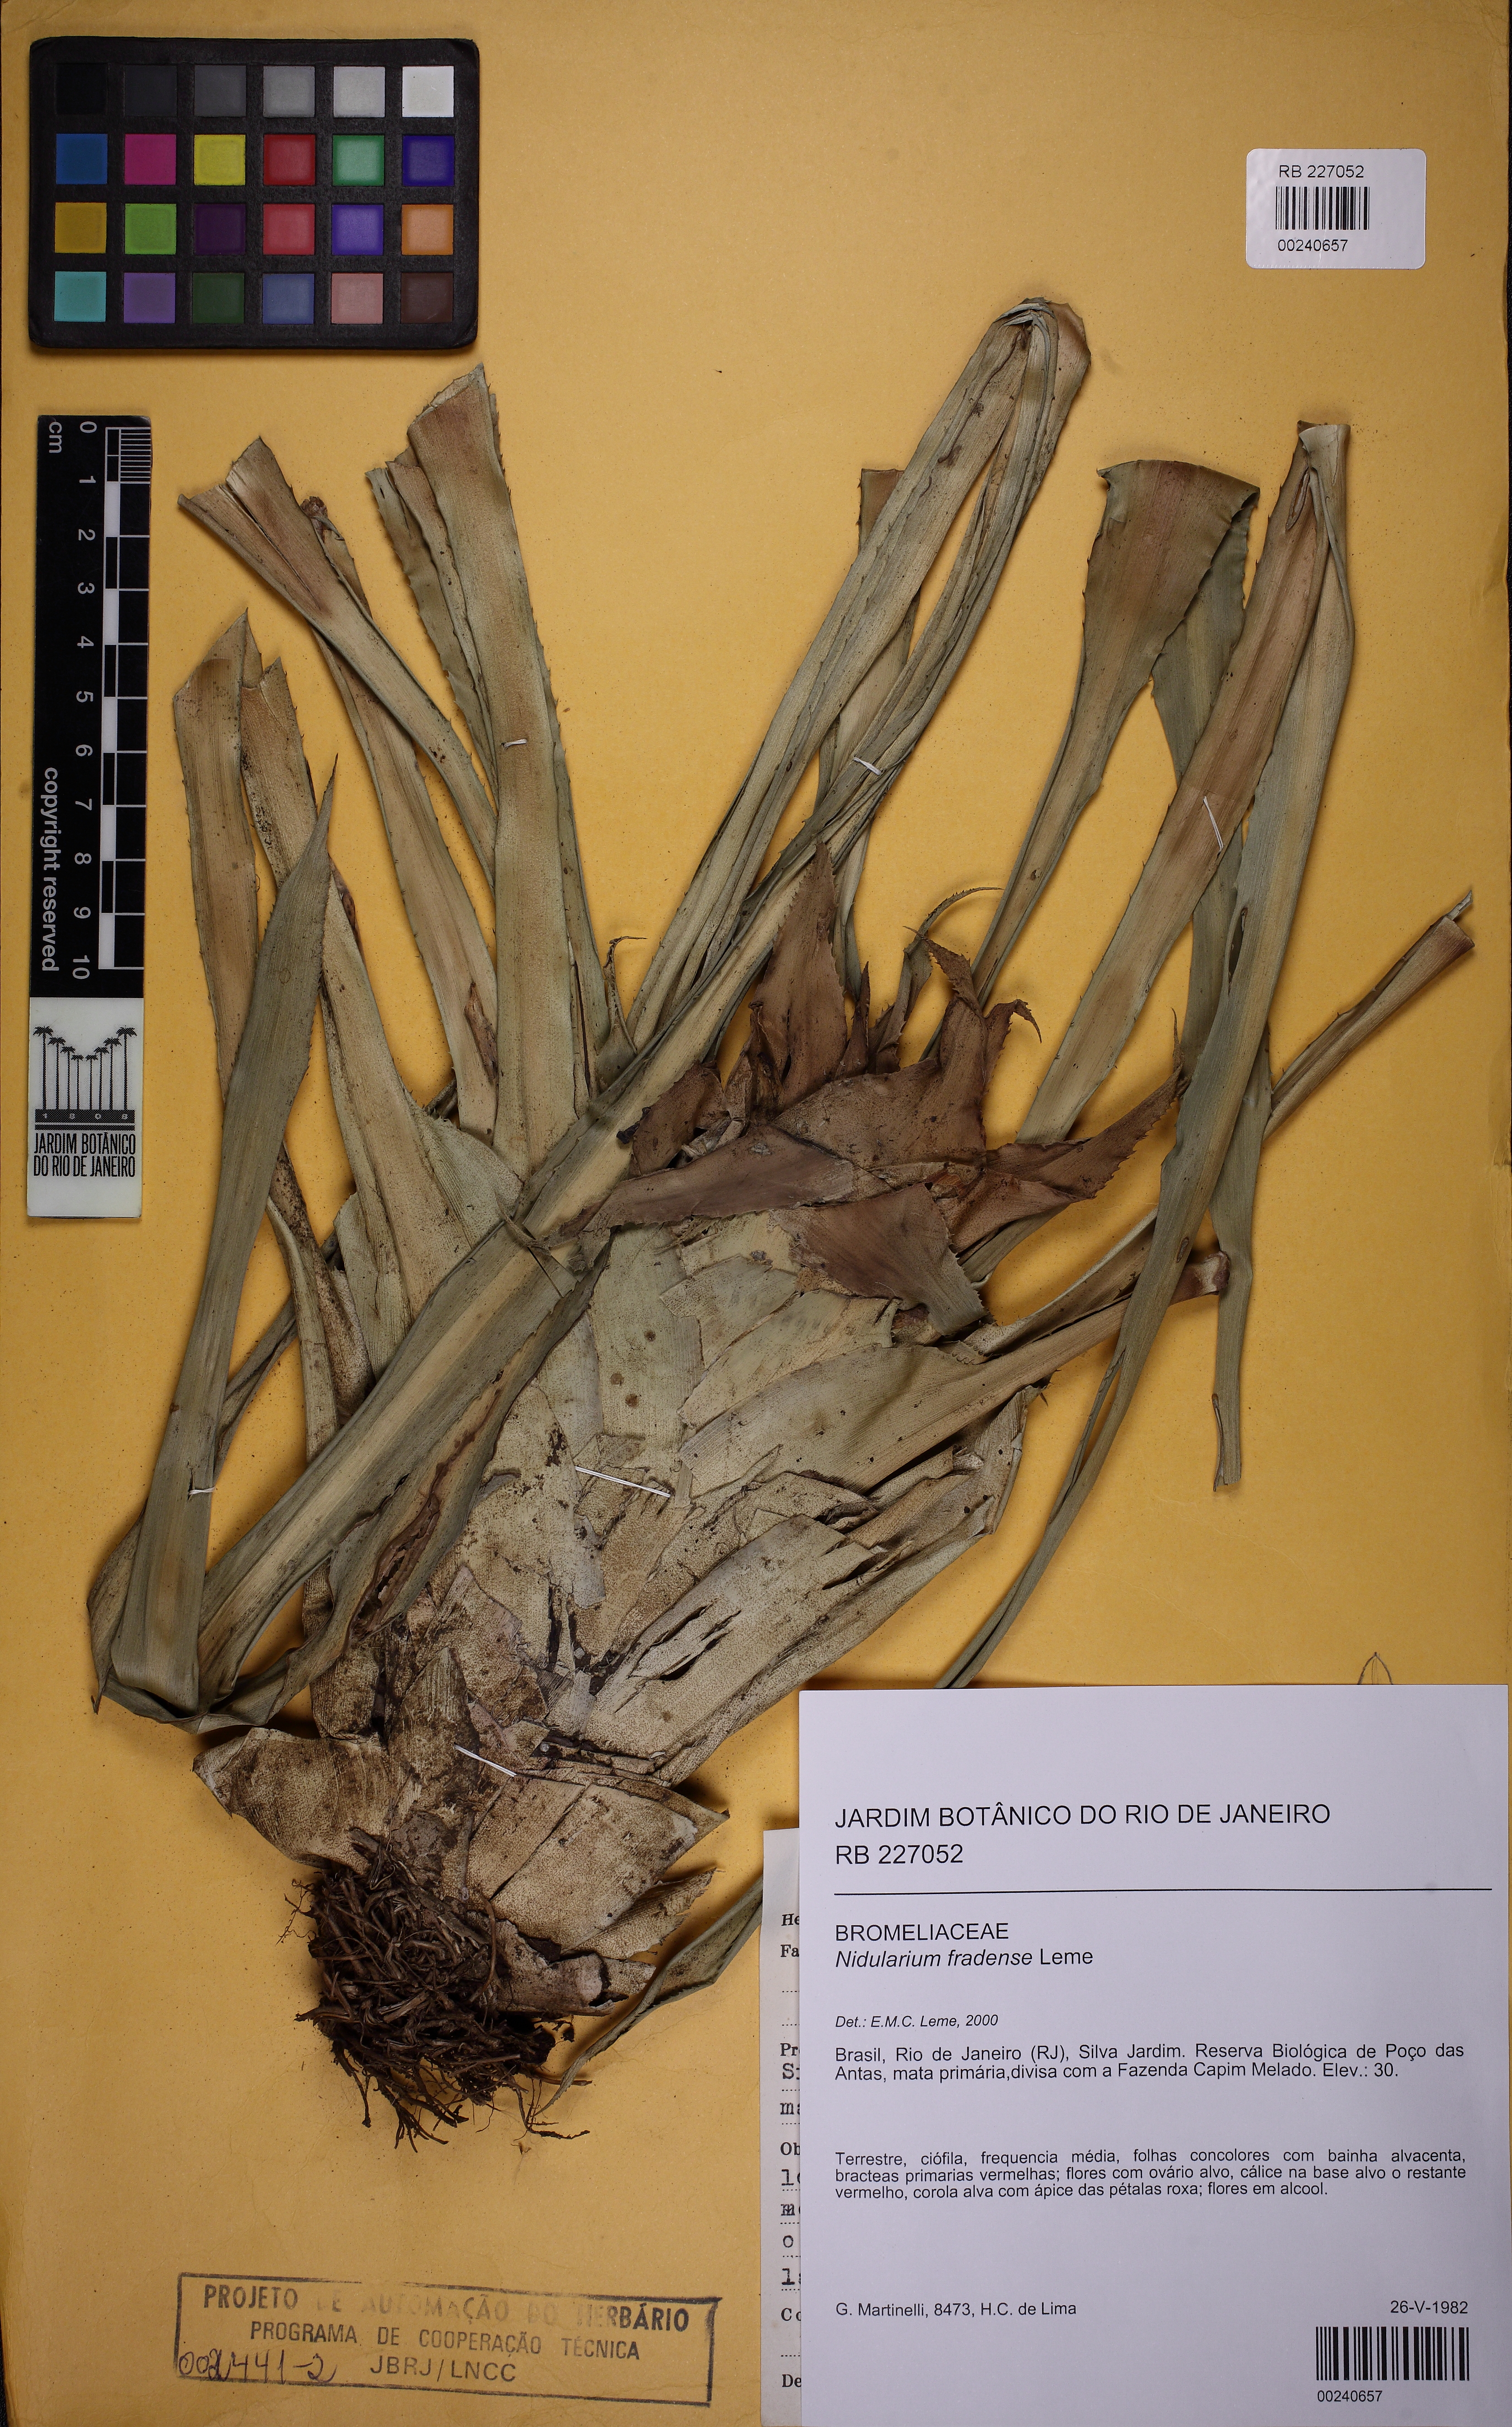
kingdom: Plantae
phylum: Tracheophyta
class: Liliopsida
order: Poales
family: Bromeliaceae
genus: Nidularium
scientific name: Nidularium fradense
